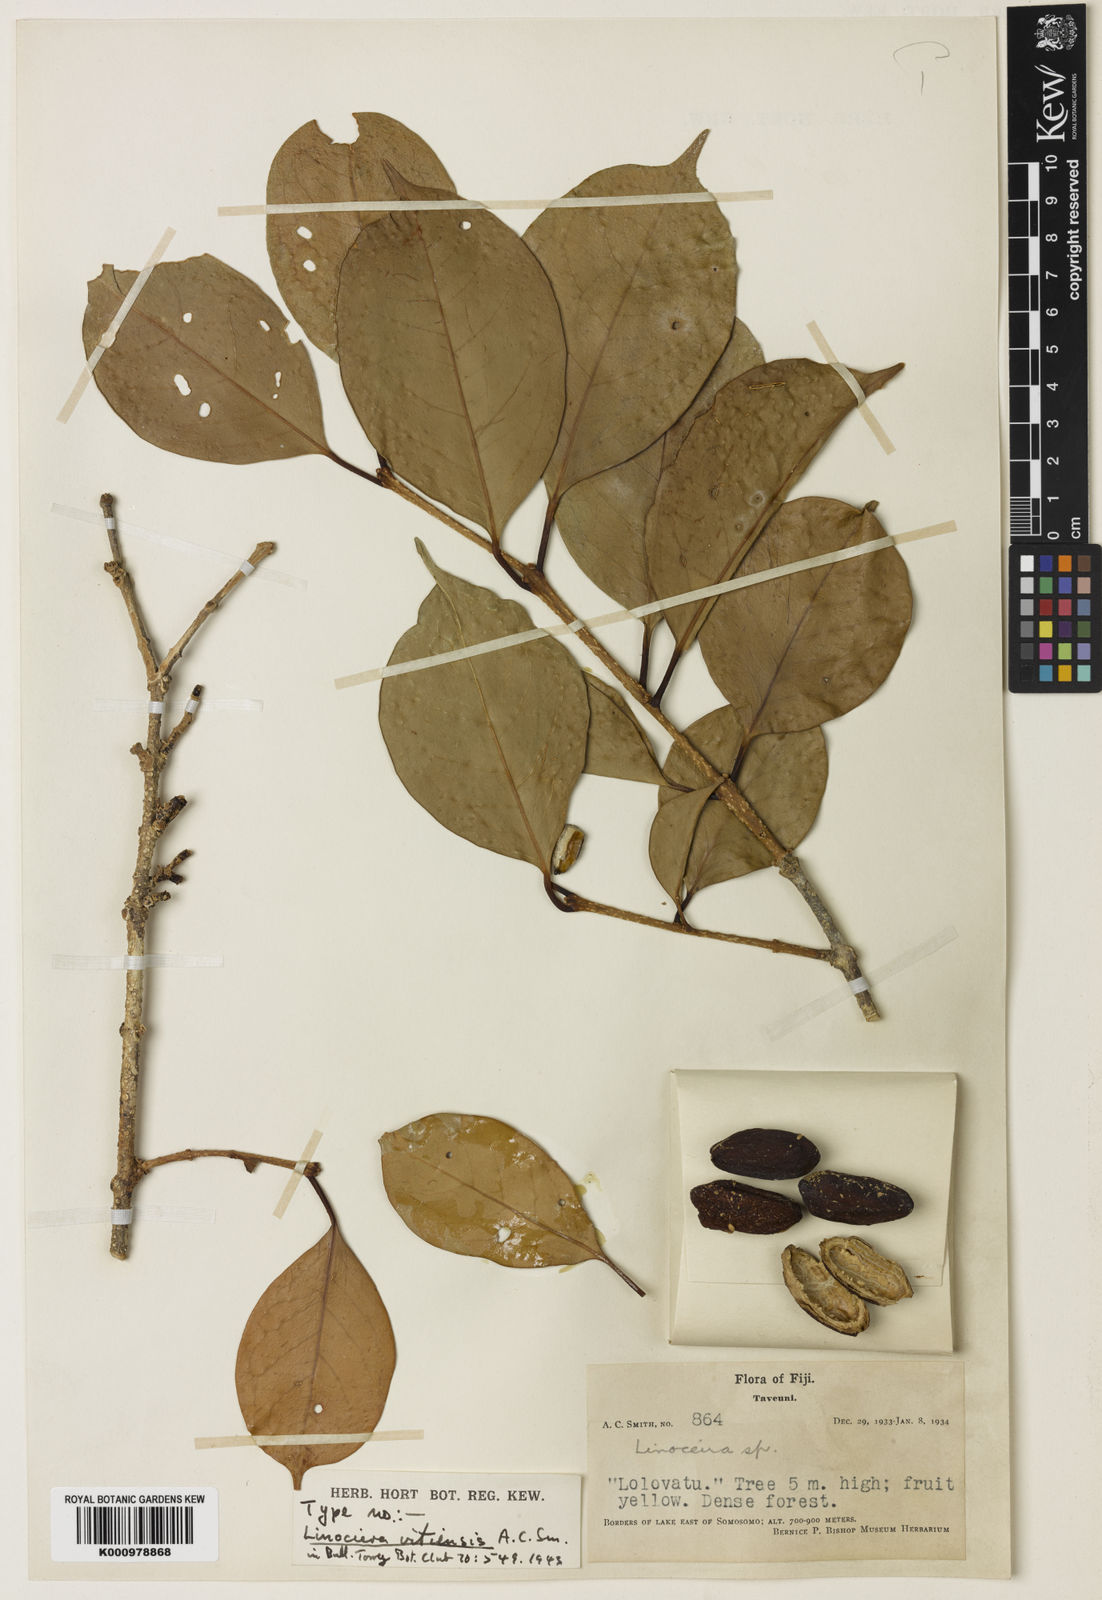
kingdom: Plantae
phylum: Tracheophyta
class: Magnoliopsida
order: Lamiales
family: Oleaceae
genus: Chionanthus
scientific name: Chionanthus vitiensis
